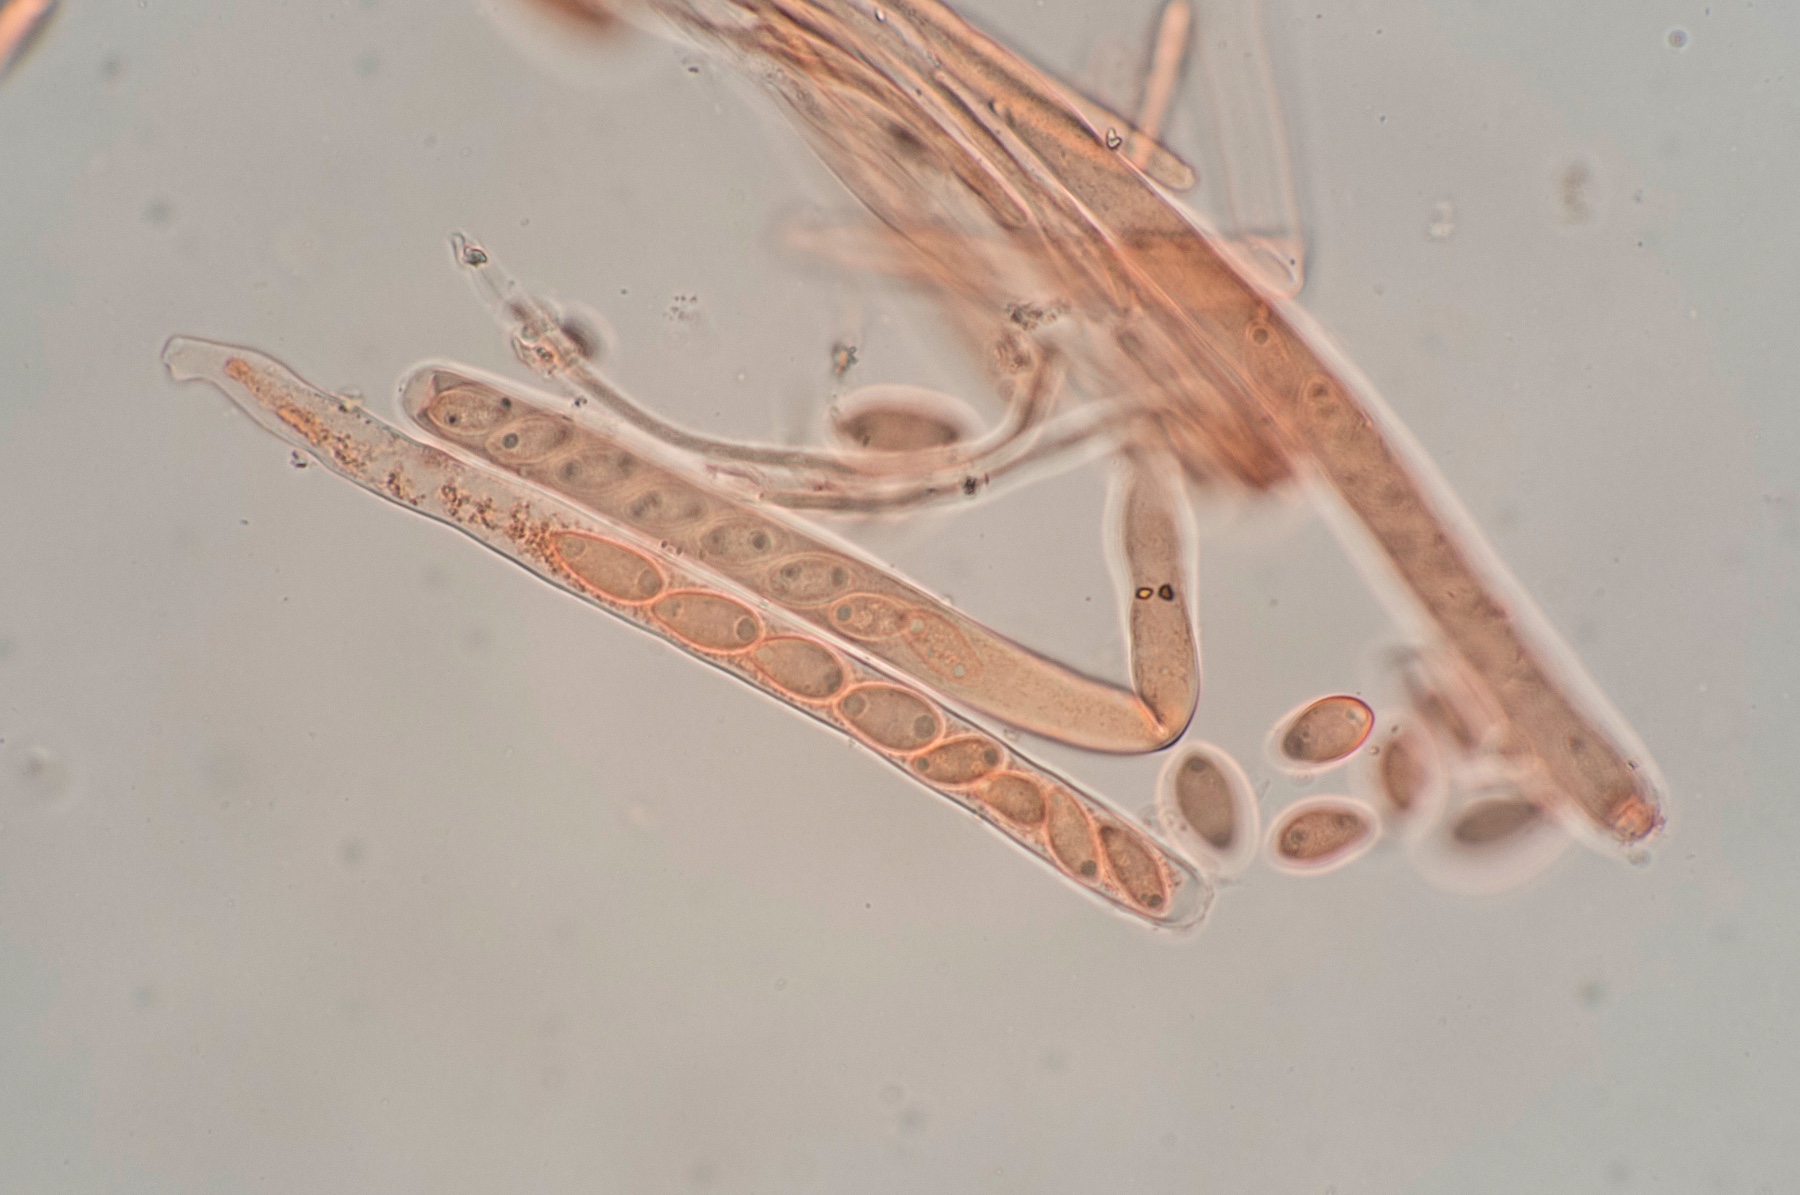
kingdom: Fungi
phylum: Ascomycota
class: Leotiomycetes
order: Helotiales
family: Sclerotiniaceae
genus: Sclerotinia
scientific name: Sclerotinia trifoliorum
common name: ærte-knoldskive
